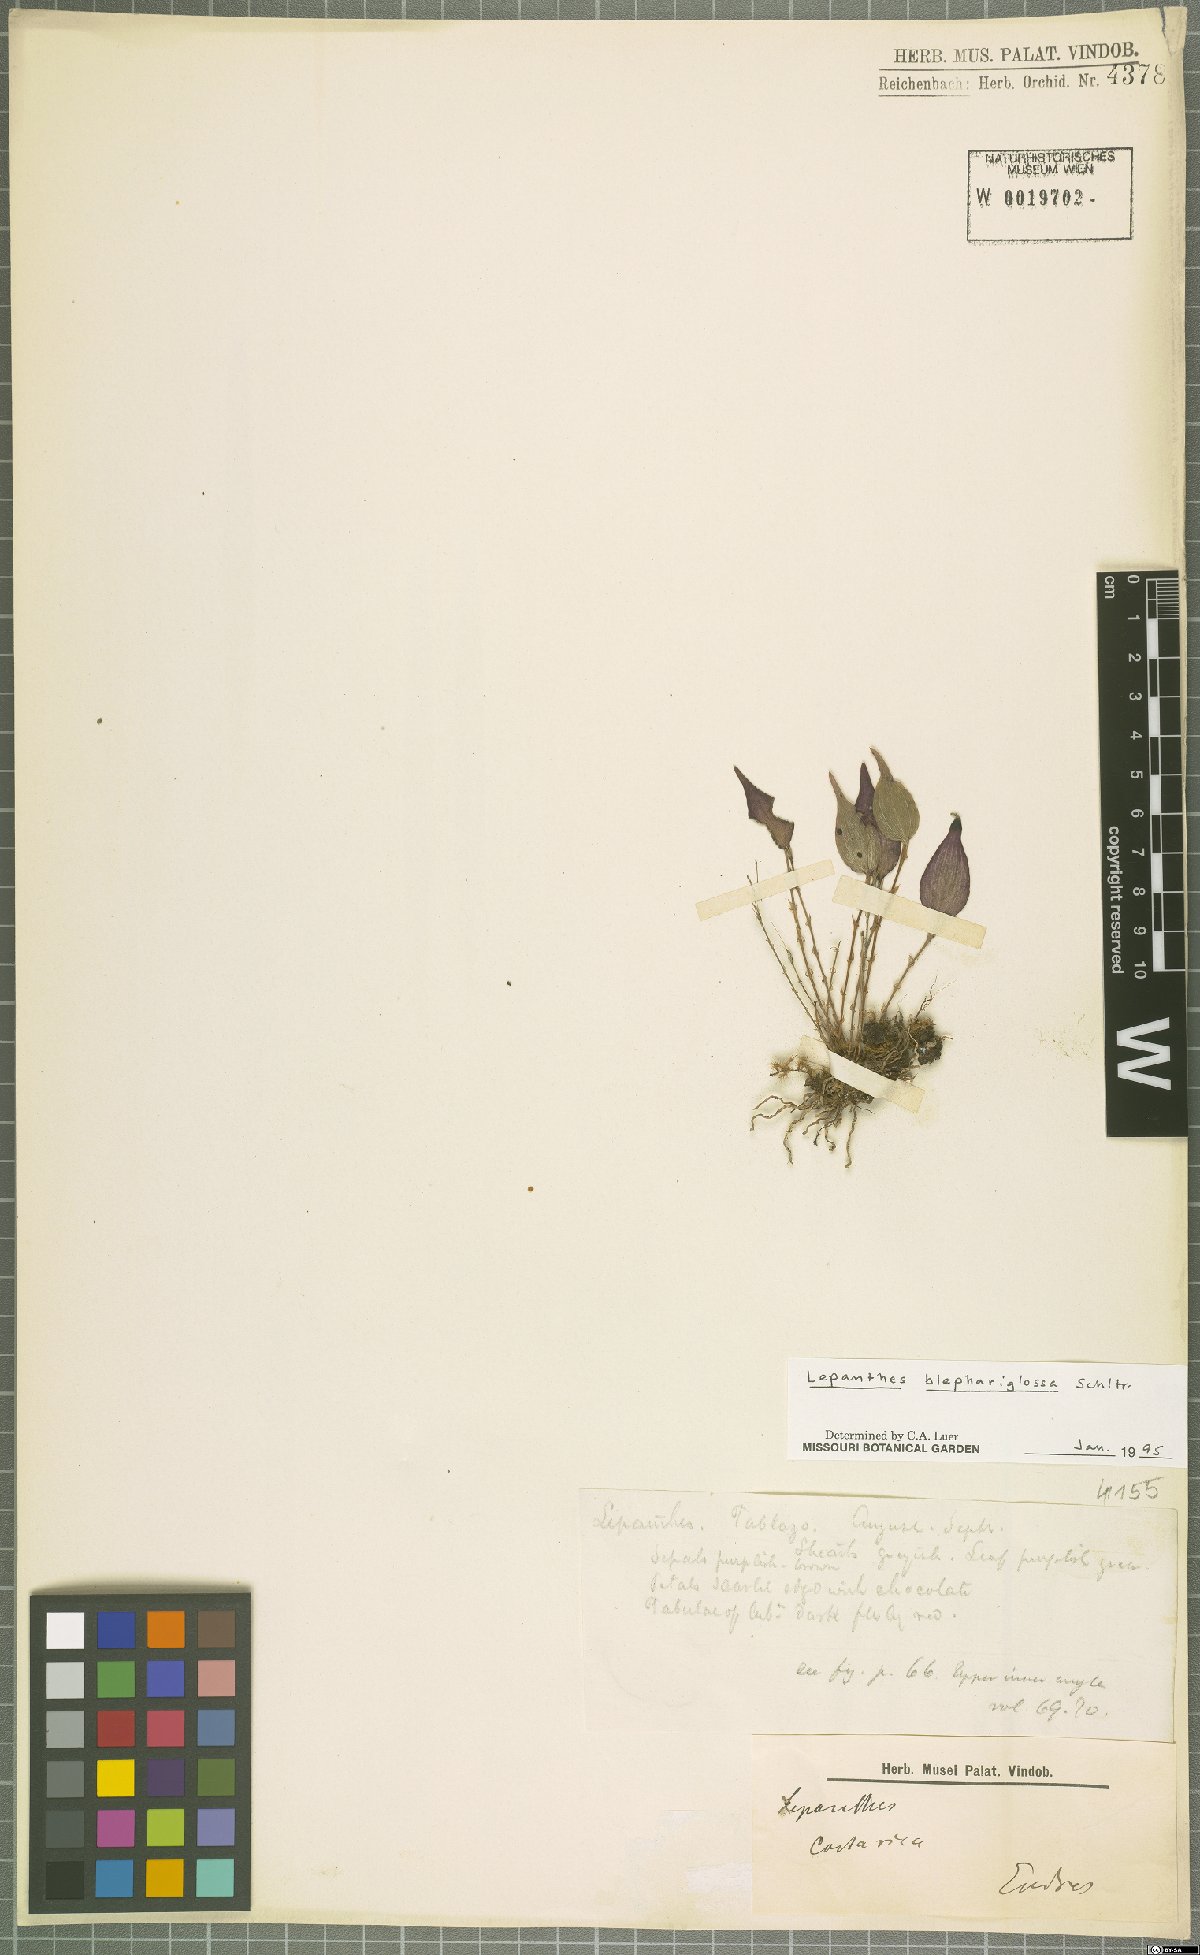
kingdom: Plantae
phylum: Tracheophyta
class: Liliopsida
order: Asparagales
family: Orchidaceae
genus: Lepanthes
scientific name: Lepanthes blephariglossa
